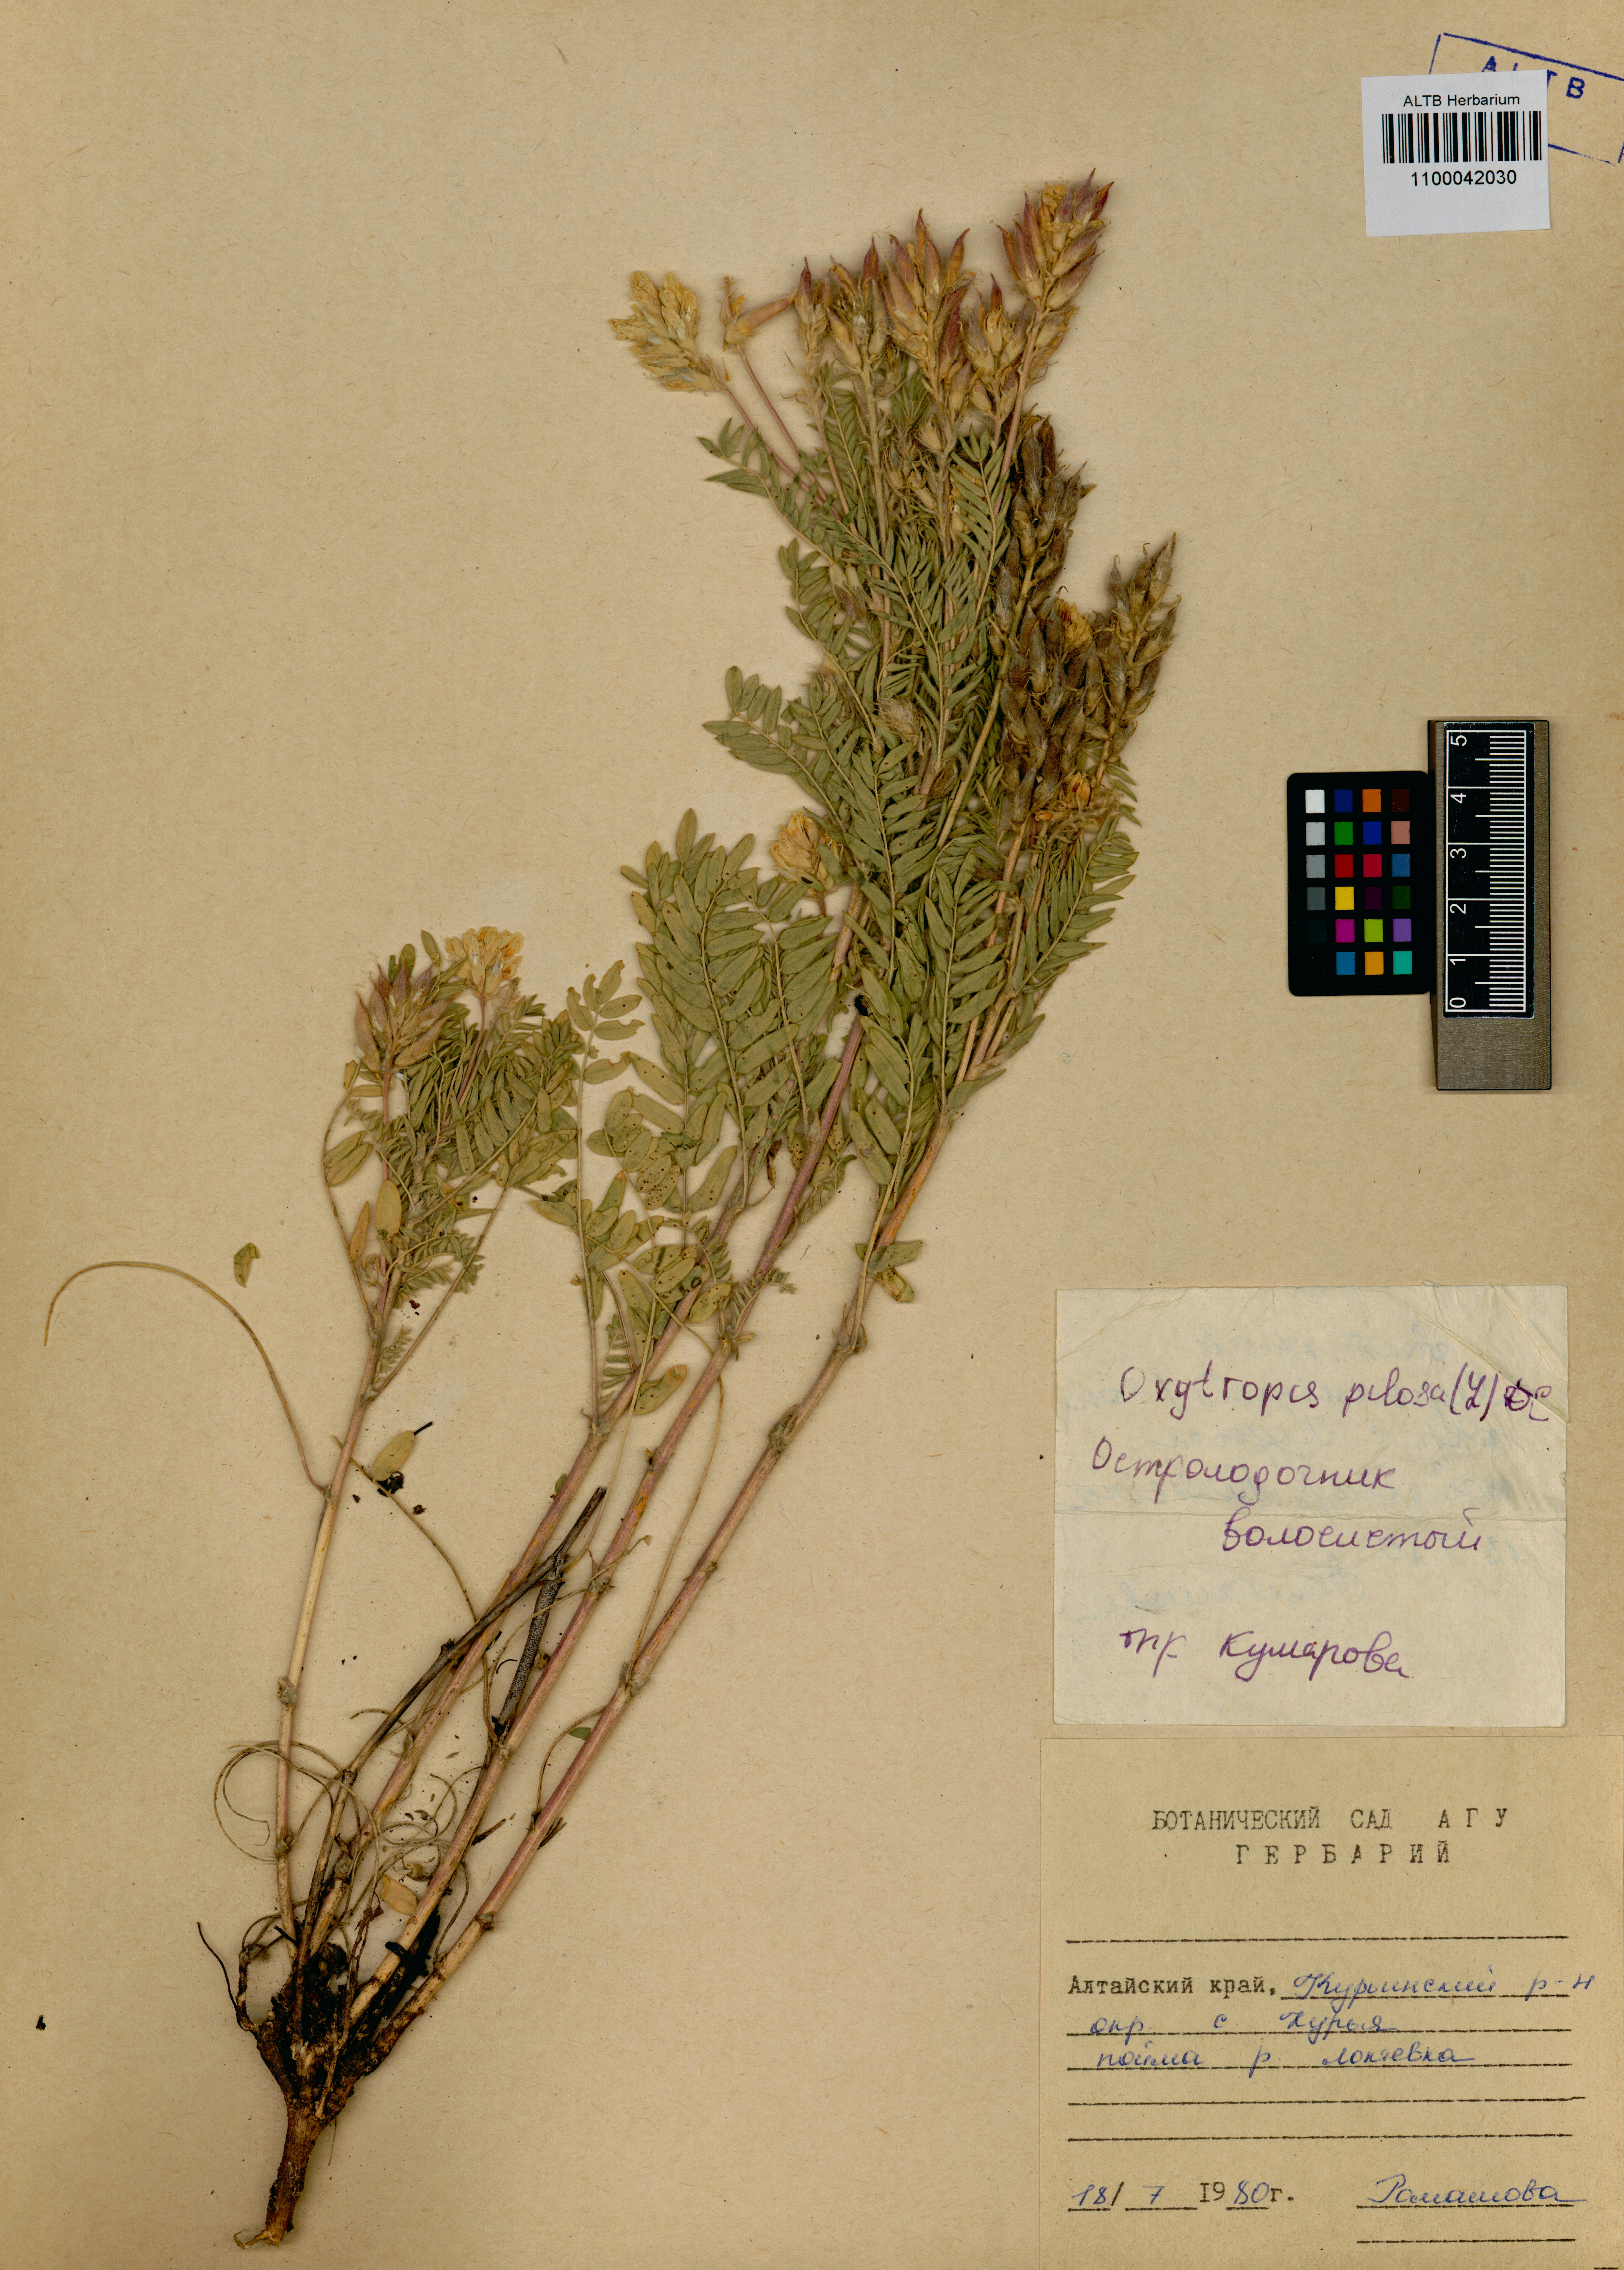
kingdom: Plantae
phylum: Tracheophyta
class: Magnoliopsida
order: Fabales
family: Fabaceae
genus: Oxytropis
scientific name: Oxytropis pilosa
